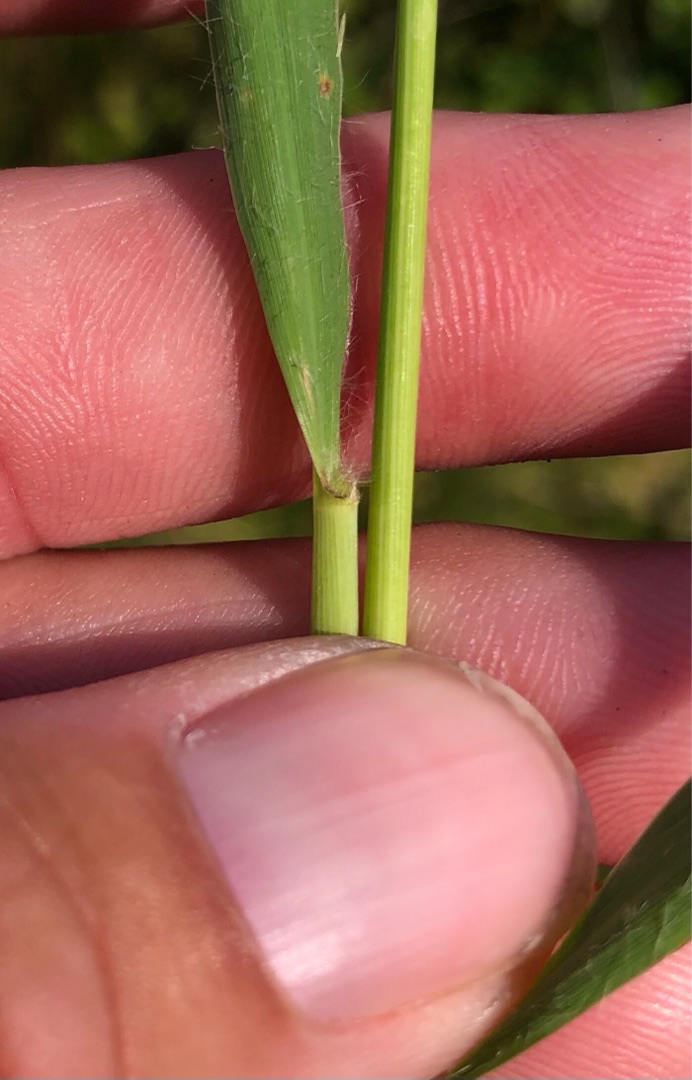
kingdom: Plantae
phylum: Tracheophyta
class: Liliopsida
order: Poales
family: Poaceae
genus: Molinia
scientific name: Molinia caerulea
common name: Blåtop
